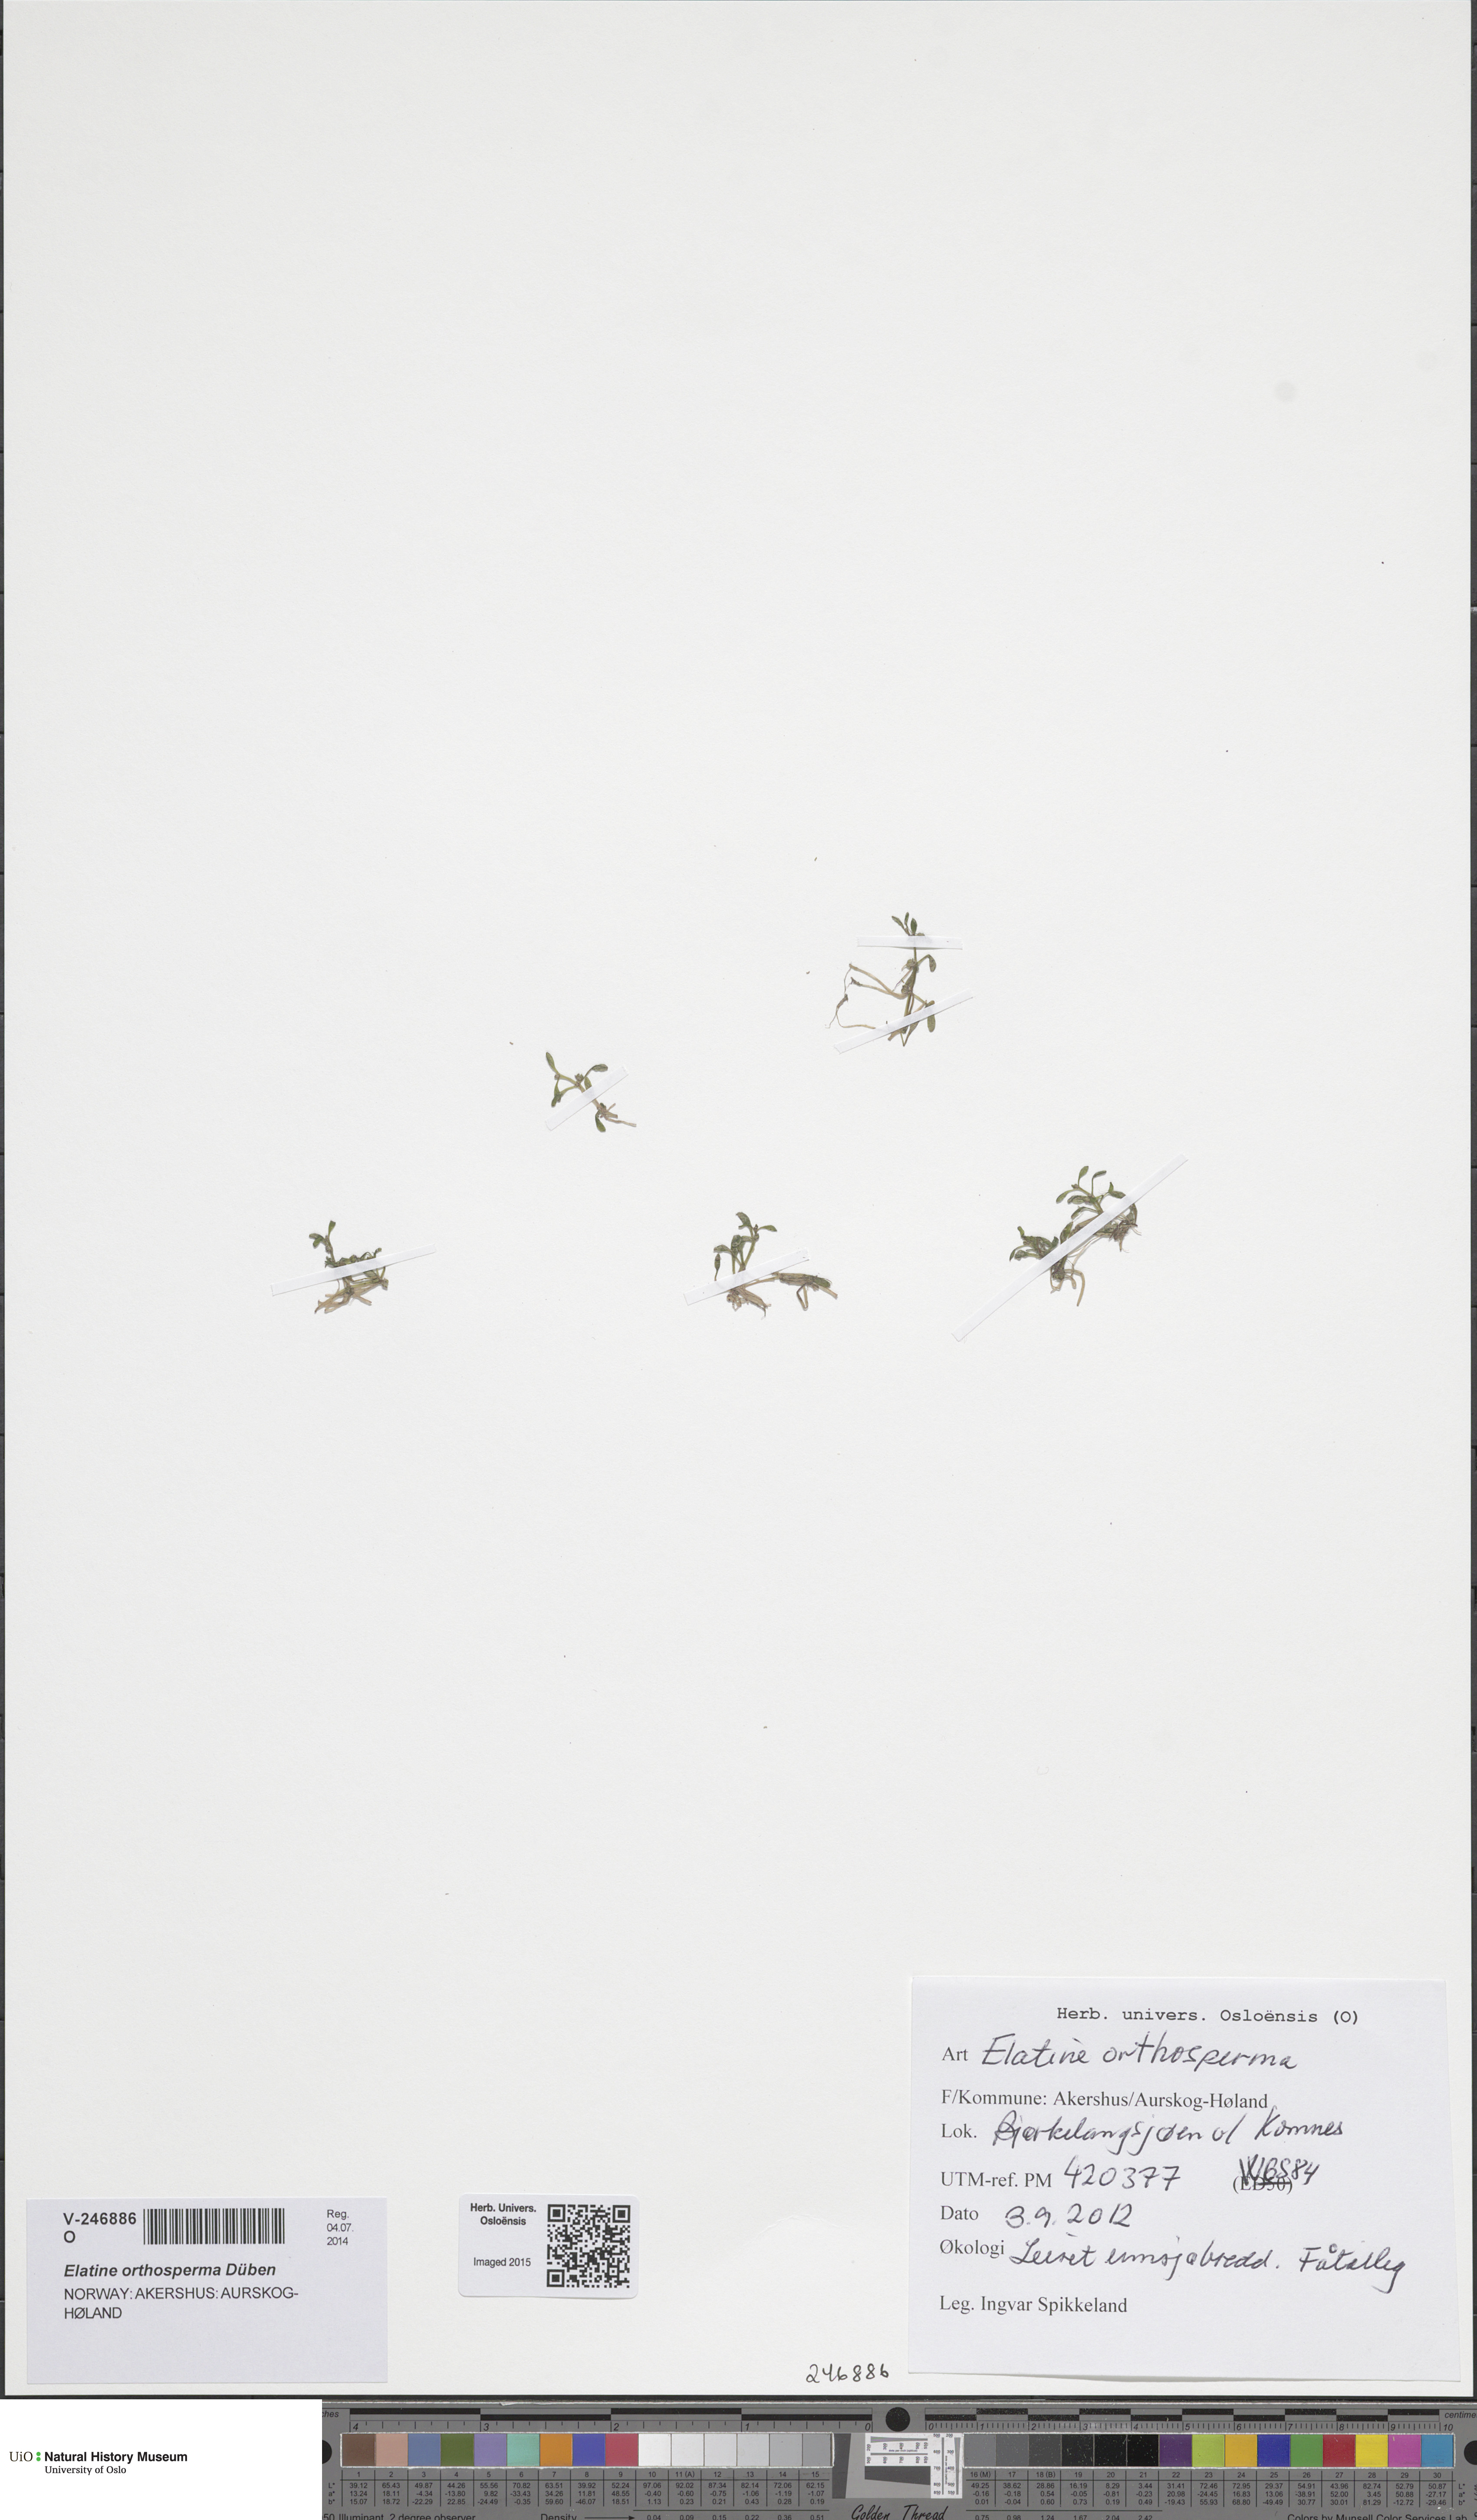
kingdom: Plantae
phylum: Tracheophyta
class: Magnoliopsida
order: Malpighiales
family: Elatinaceae
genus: Elatine
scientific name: Elatine orthosperma
